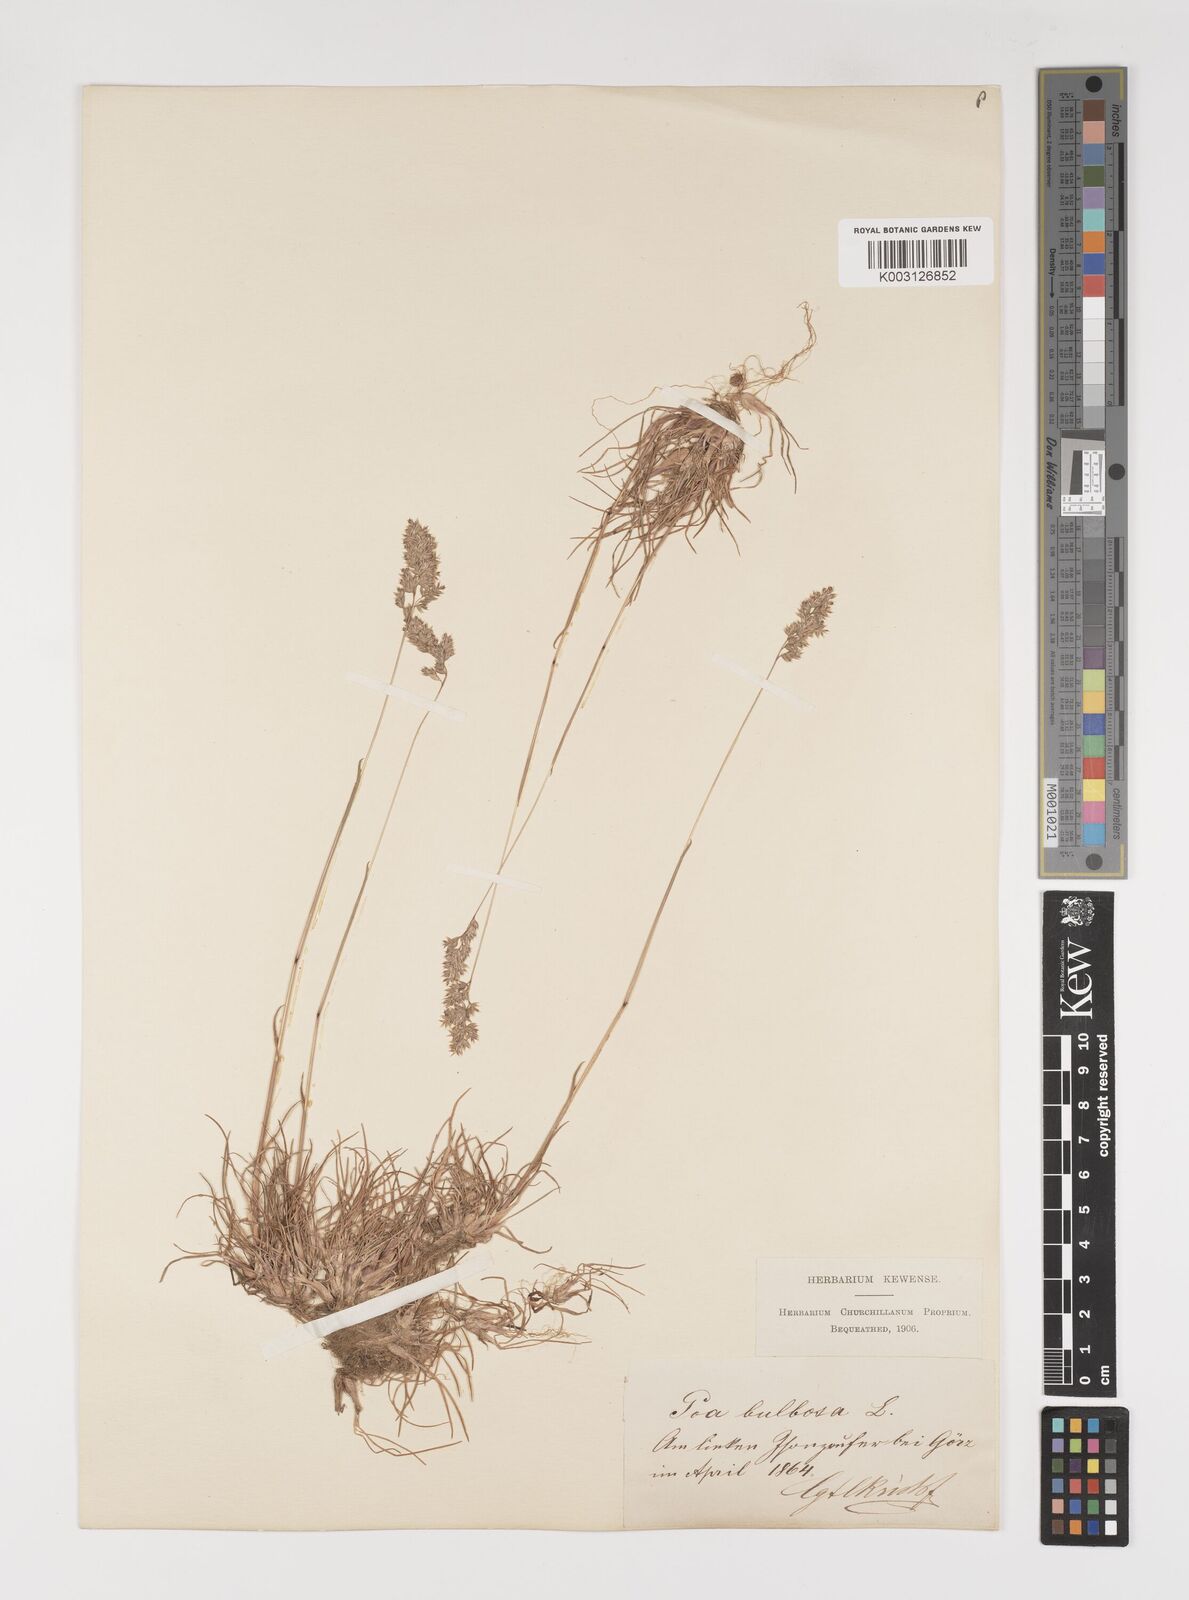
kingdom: Plantae
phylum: Tracheophyta
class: Liliopsida
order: Poales
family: Poaceae
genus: Poa
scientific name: Poa bulbosa
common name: Bulbous bluegrass
